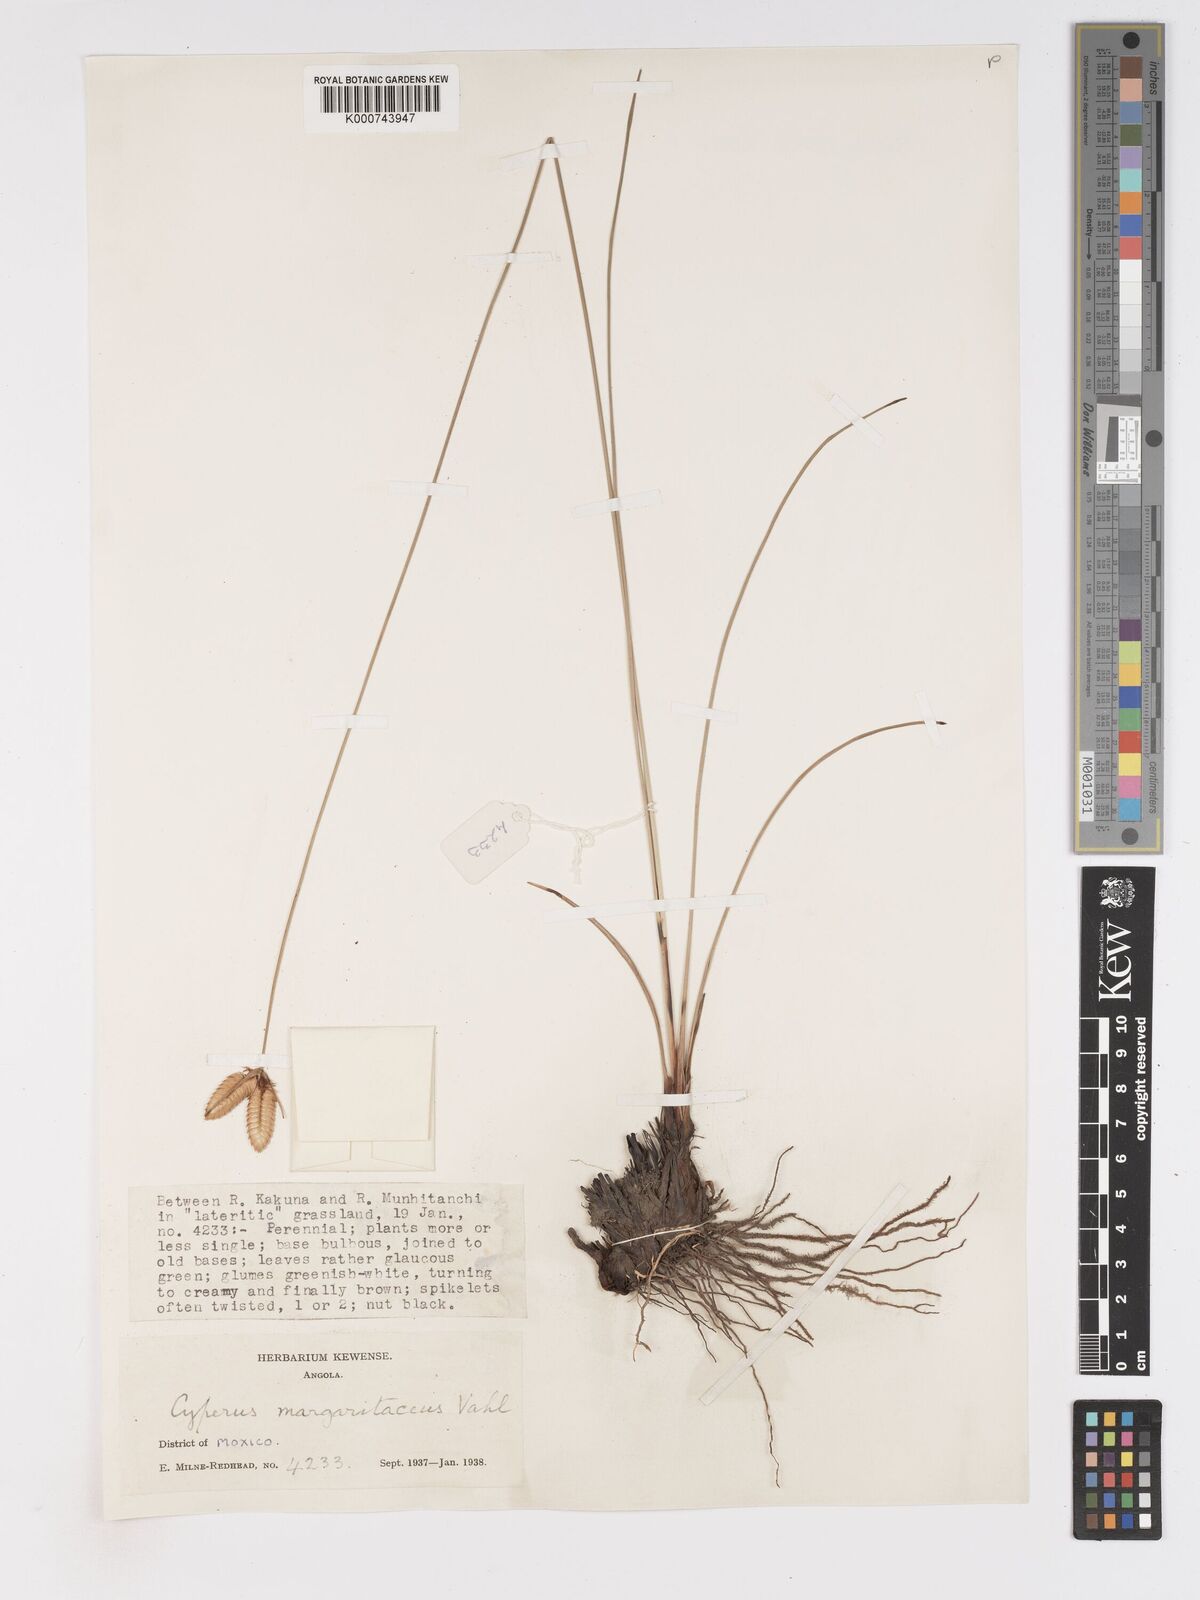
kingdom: Plantae
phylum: Tracheophyta
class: Liliopsida
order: Poales
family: Cyperaceae
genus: Cyperus
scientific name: Cyperus margaritaceus
